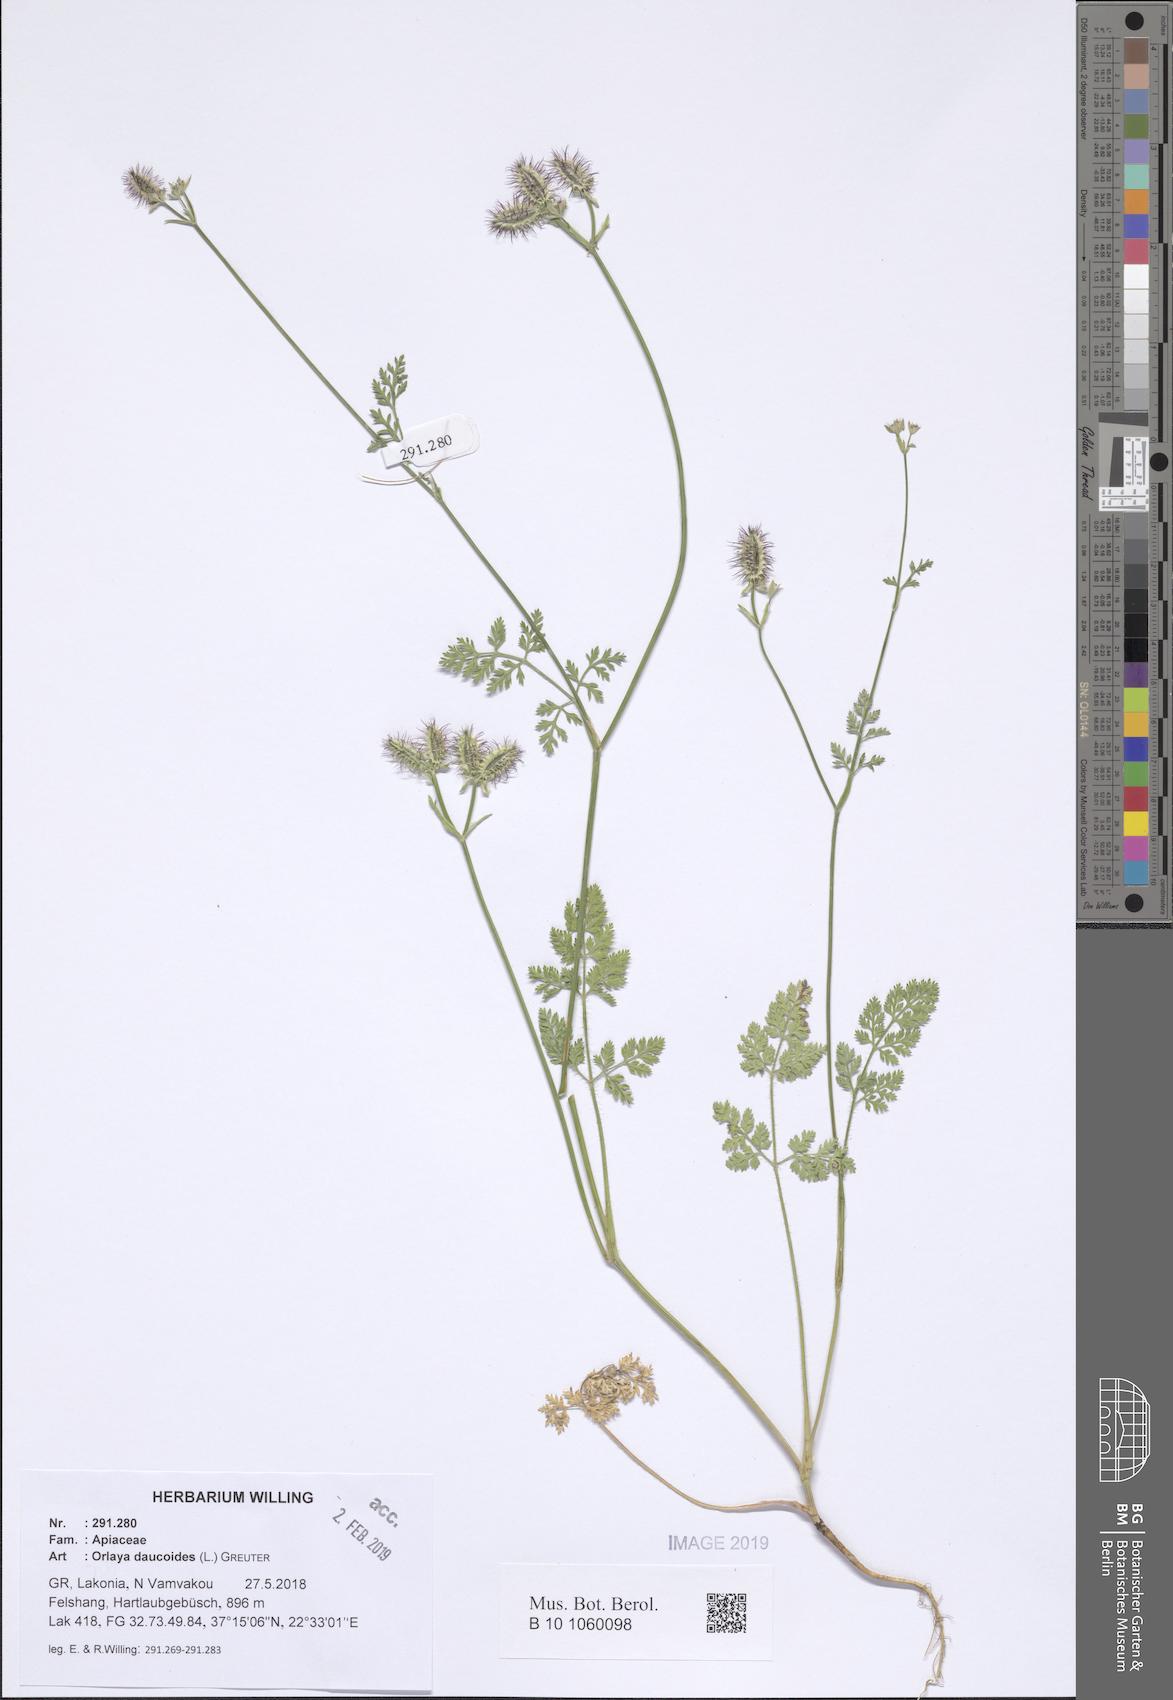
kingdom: Plantae
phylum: Tracheophyta
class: Magnoliopsida
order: Apiales
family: Apiaceae
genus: Orlaya
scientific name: Orlaya daucoides
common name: Flat-fruit orlaya
